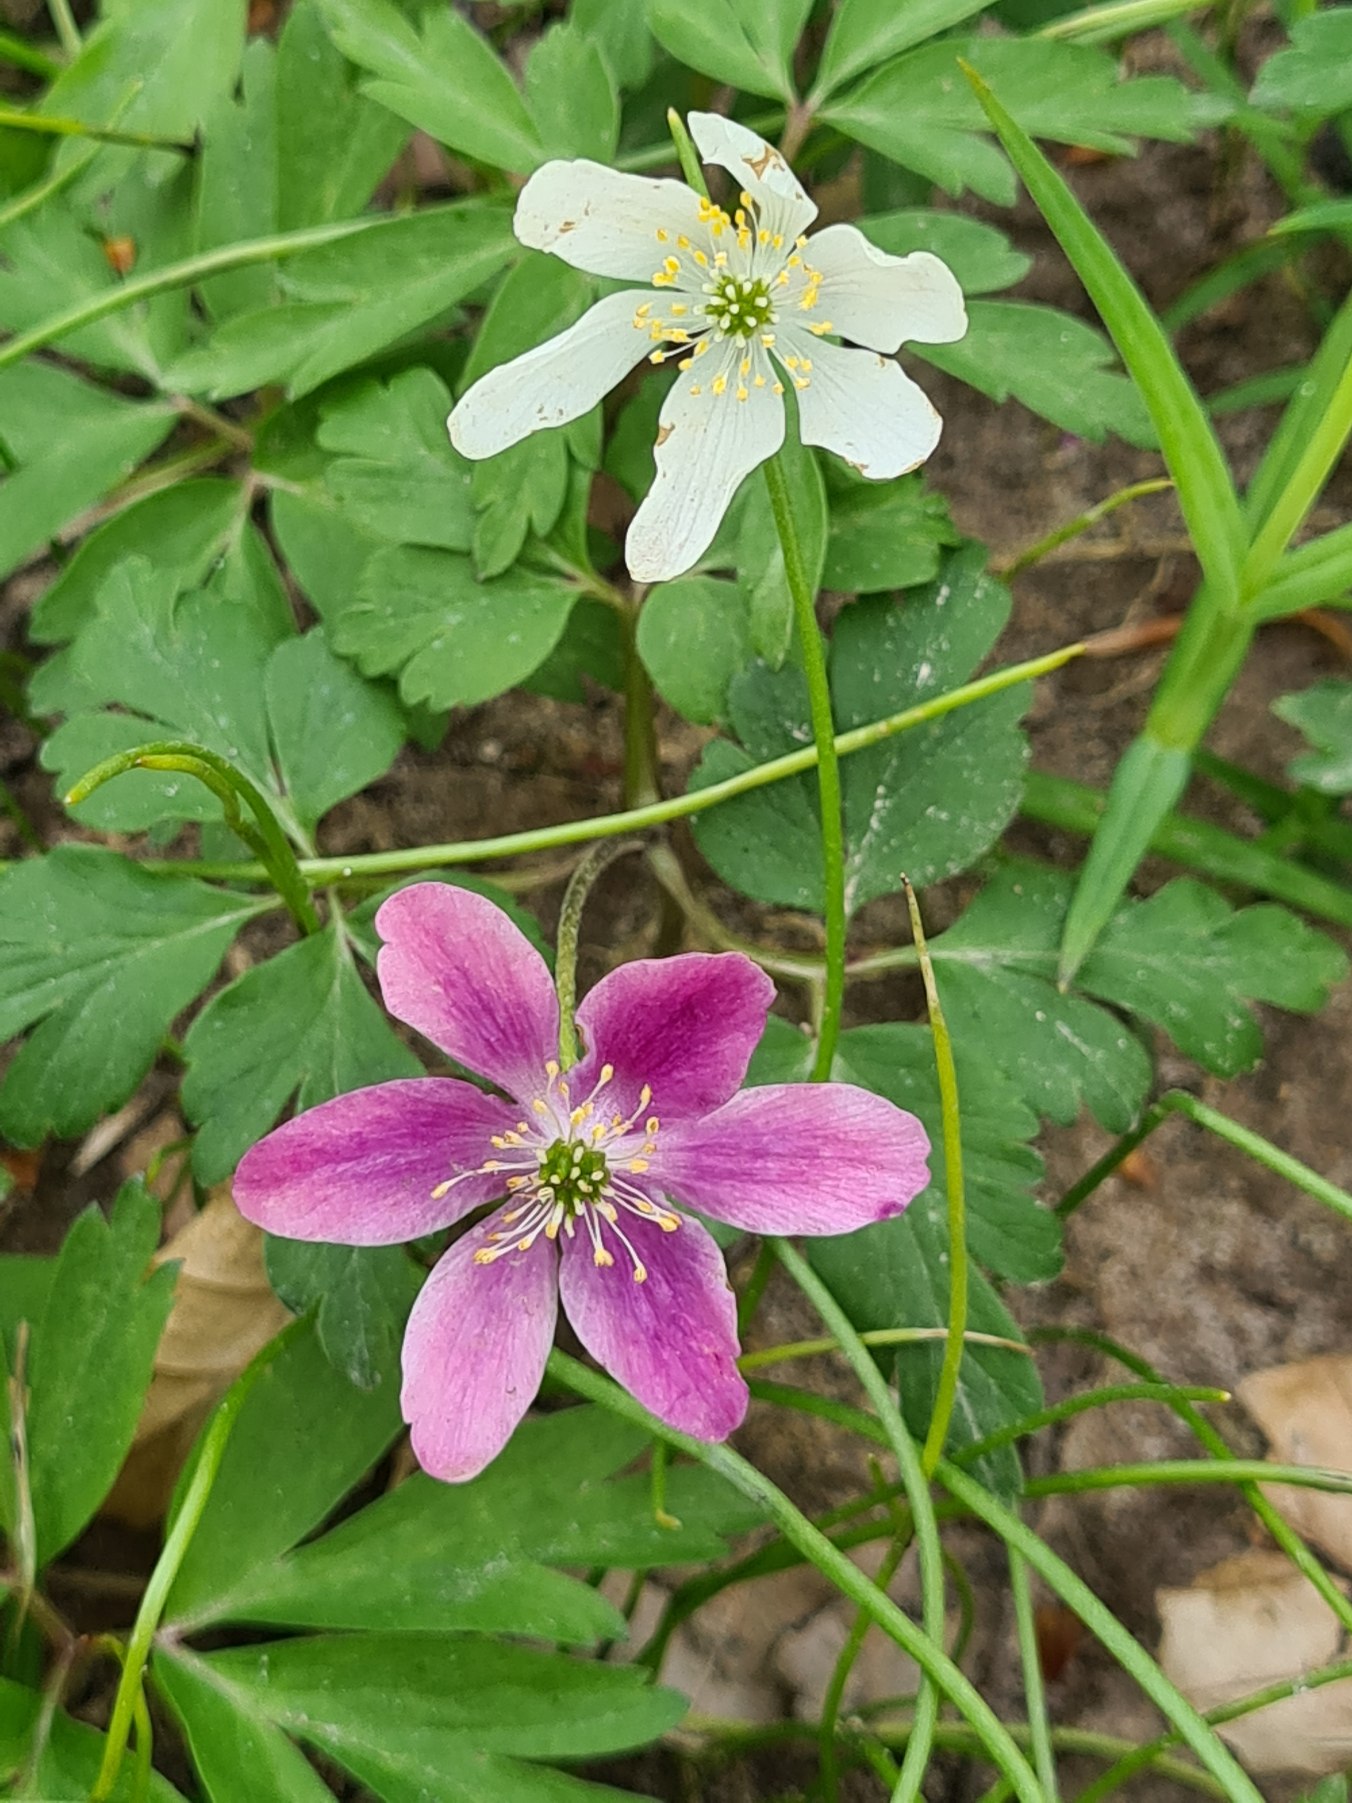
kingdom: Plantae
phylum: Tracheophyta
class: Magnoliopsida
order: Ranunculales
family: Ranunculaceae
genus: Anemone
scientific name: Anemone nemorosa
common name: Hvid anemone
